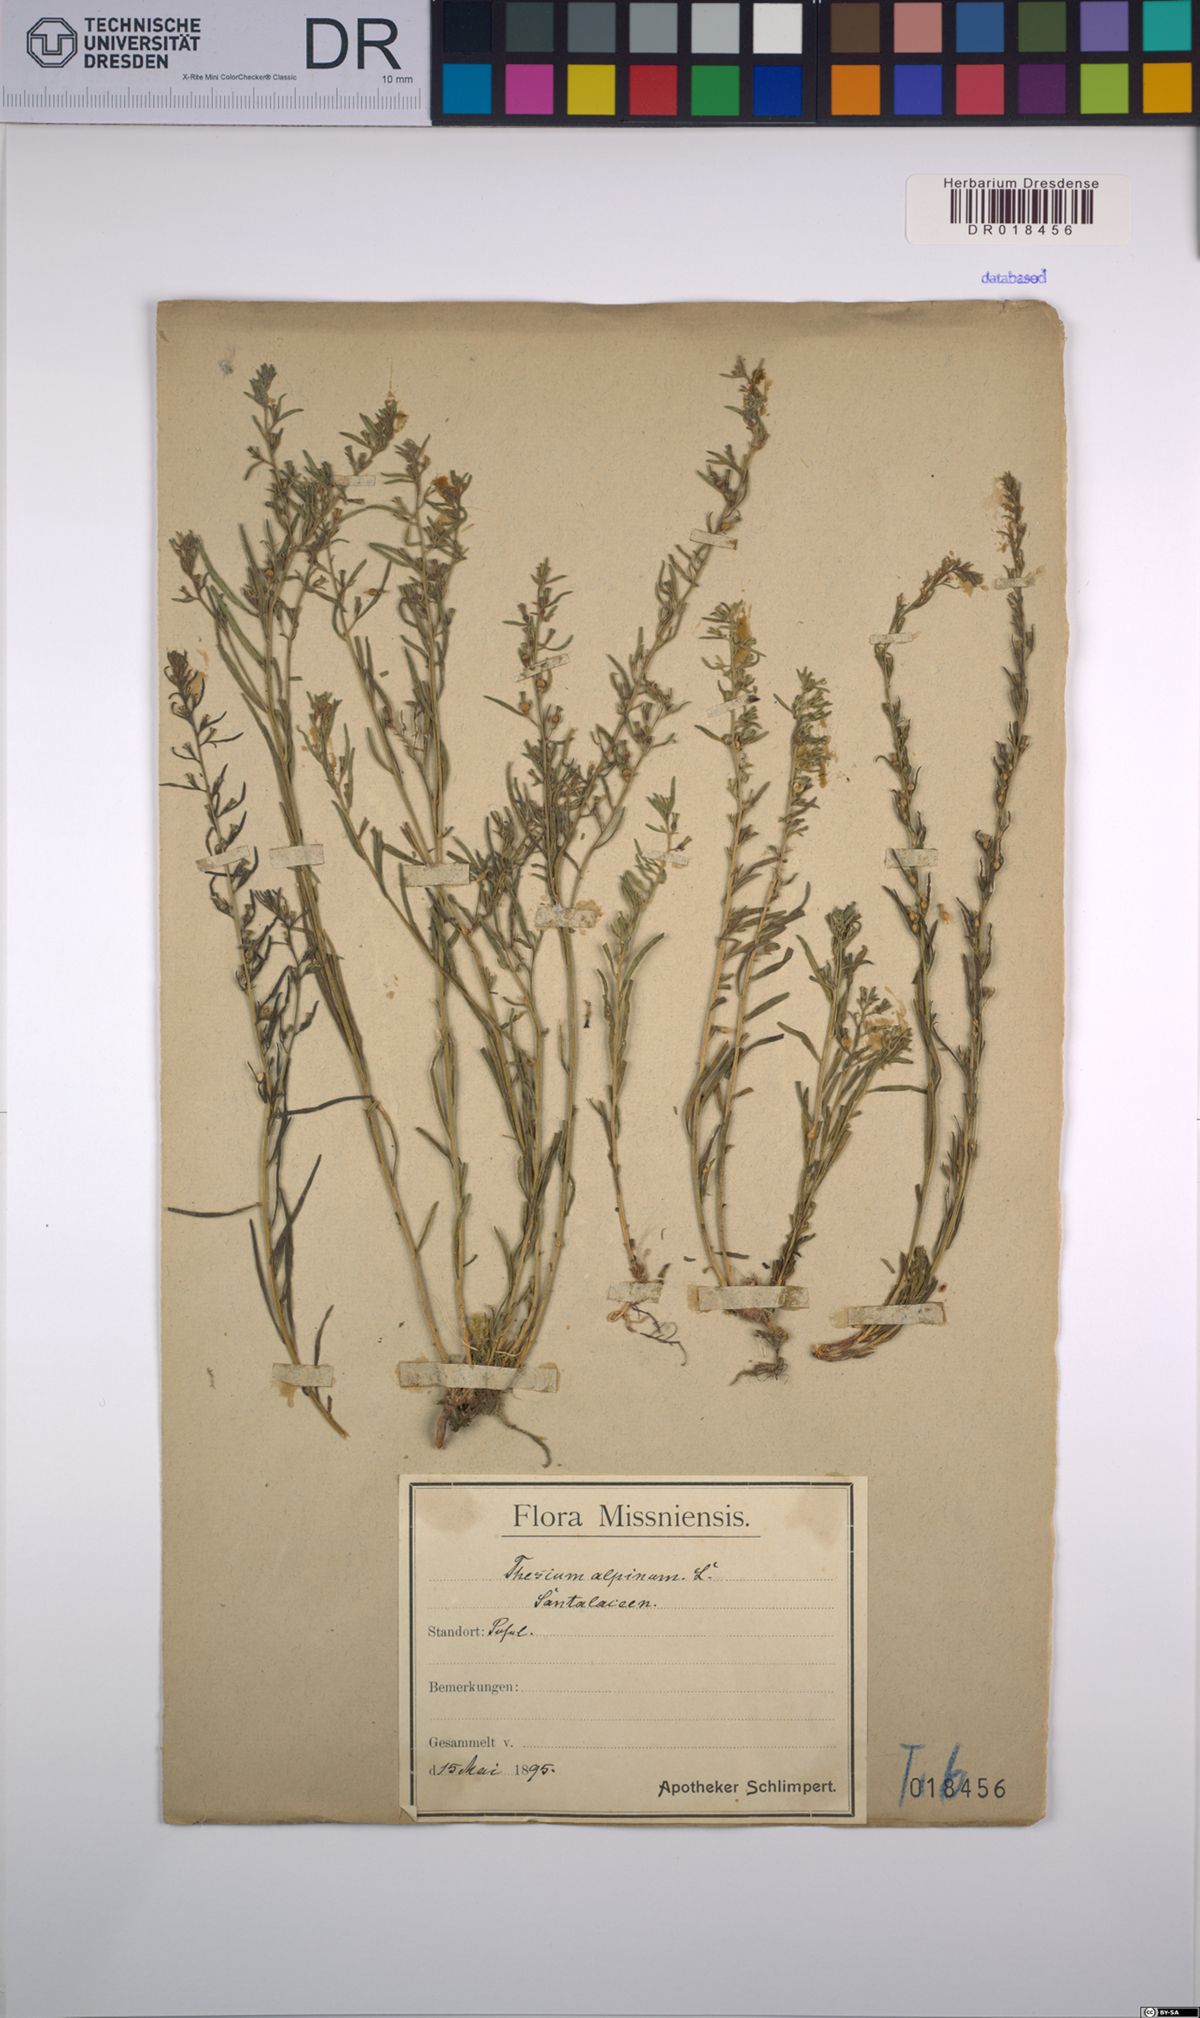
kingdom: Plantae
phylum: Tracheophyta
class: Magnoliopsida
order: Santalales
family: Thesiaceae
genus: Thesium
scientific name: Thesium alpinum
